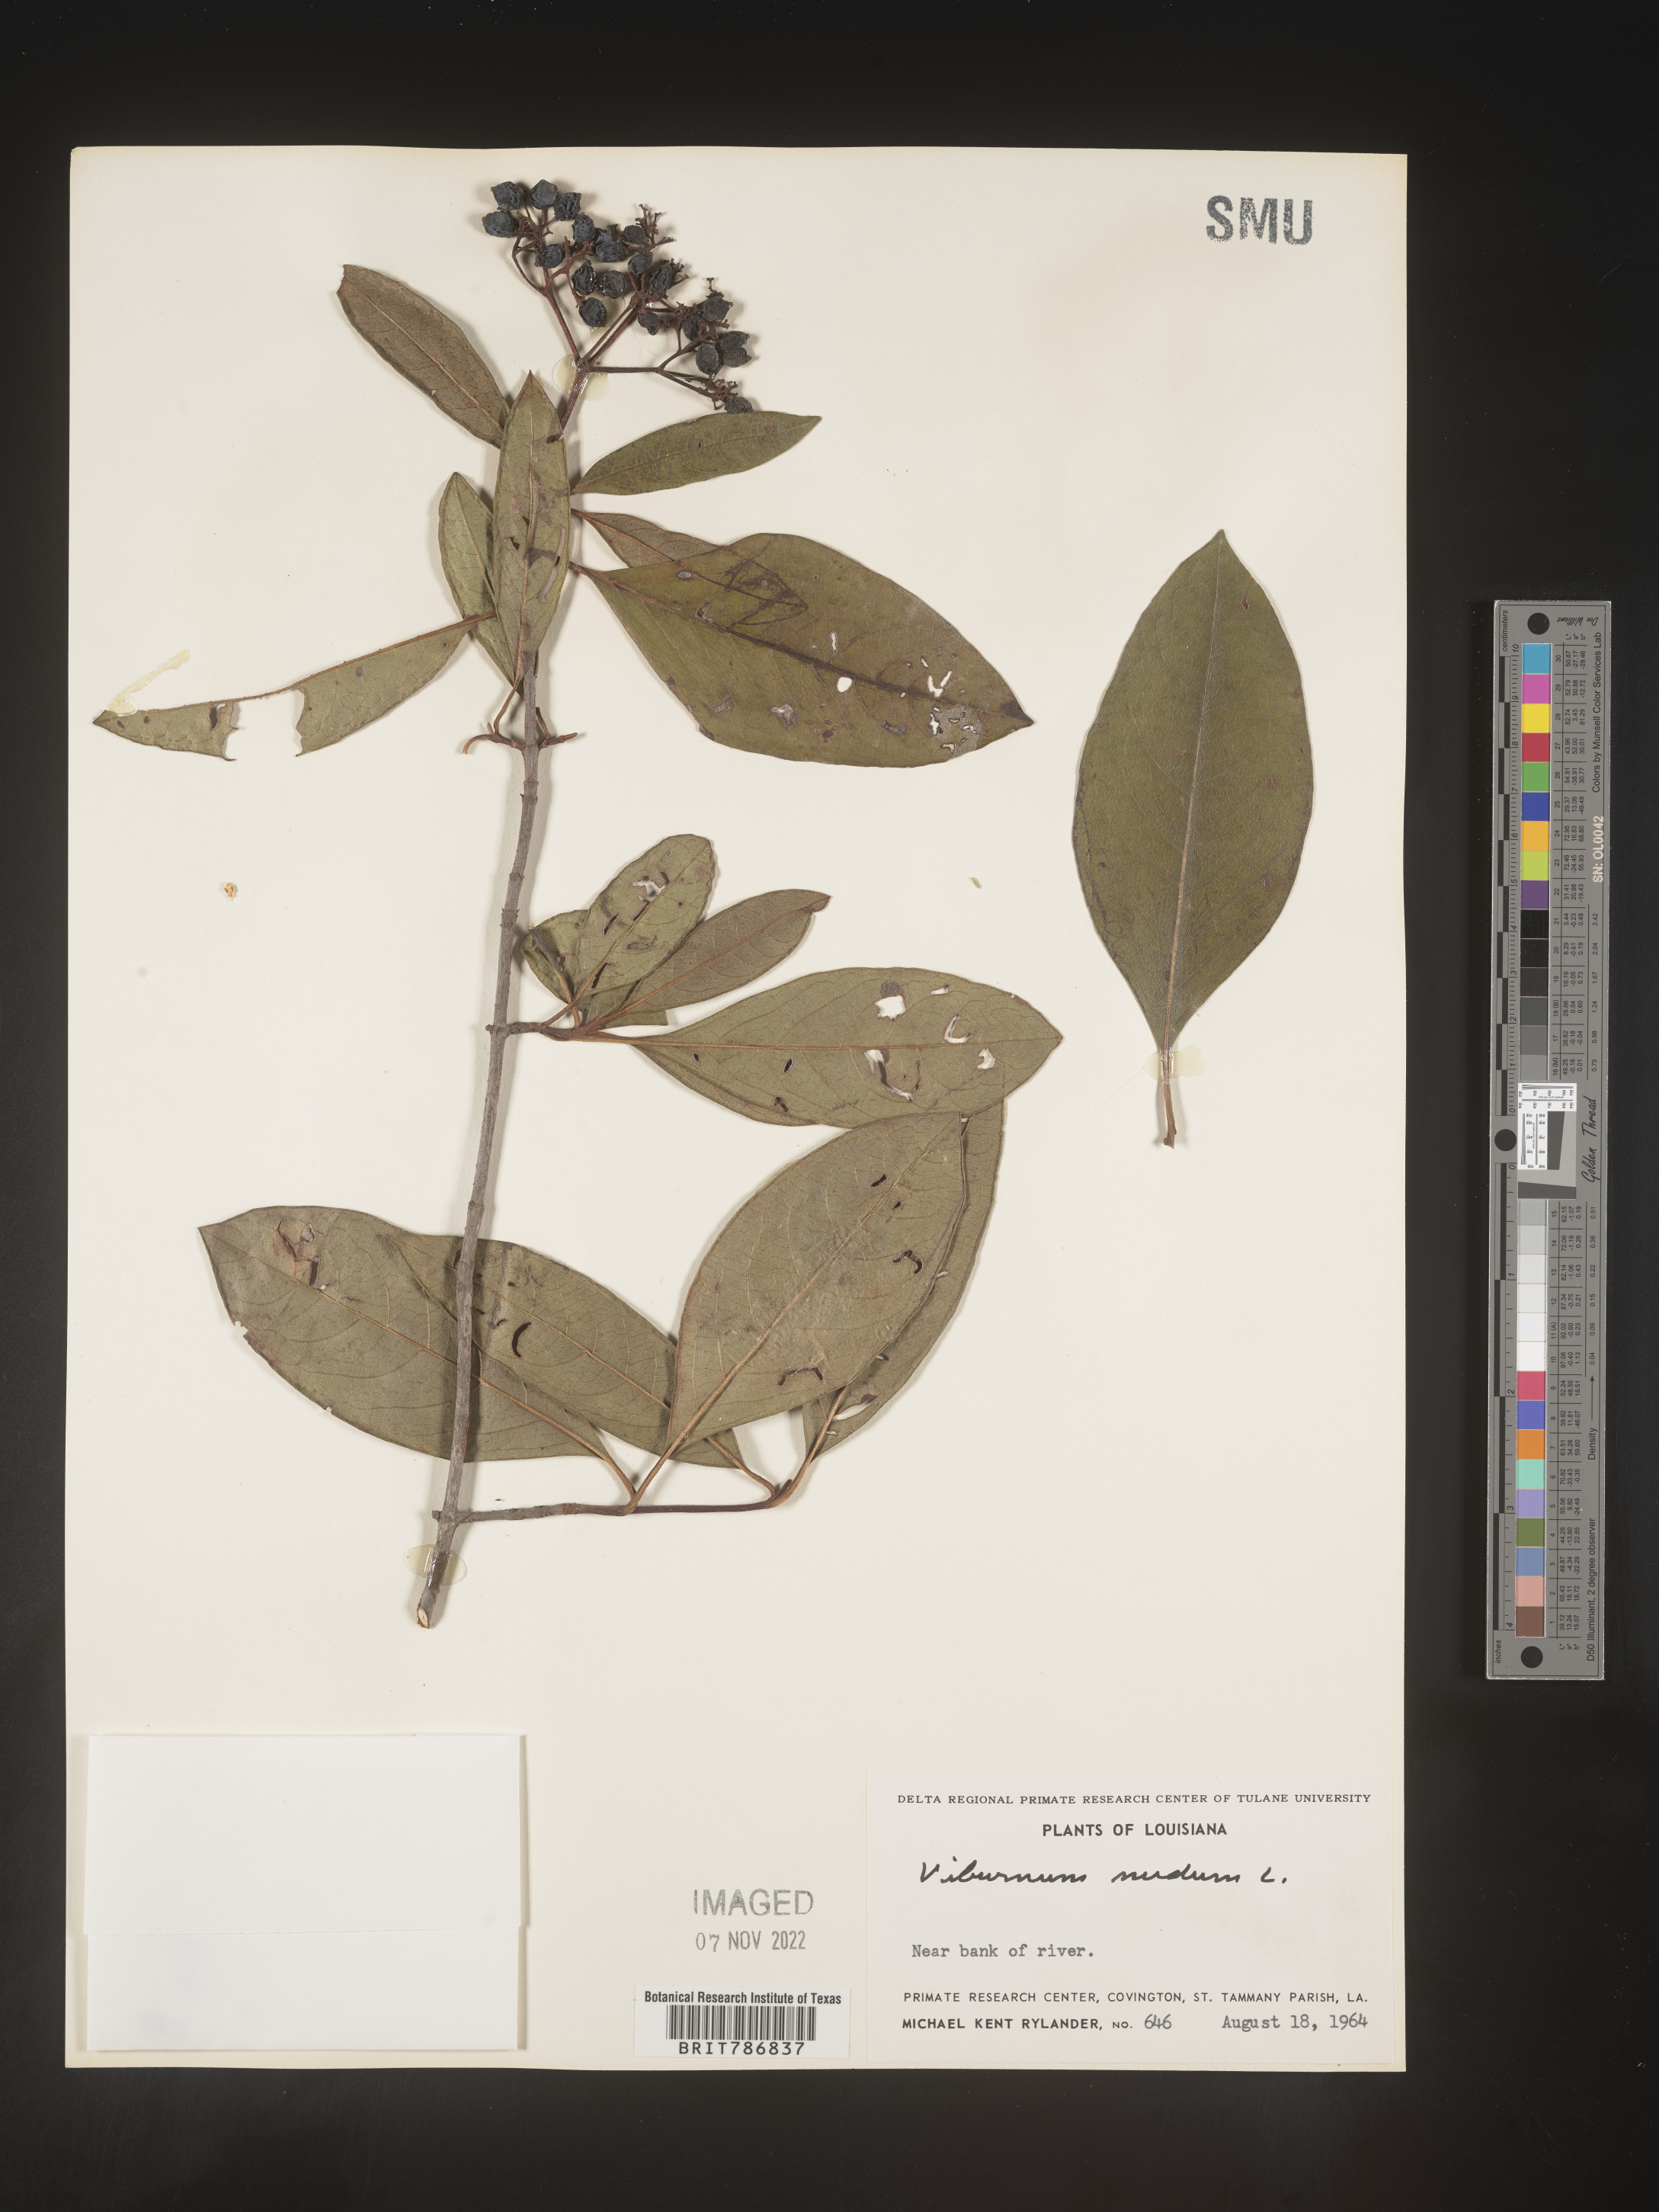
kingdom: Plantae
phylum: Tracheophyta
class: Magnoliopsida
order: Dipsacales
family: Viburnaceae
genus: Viburnum
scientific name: Viburnum nudum
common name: Possum haw
